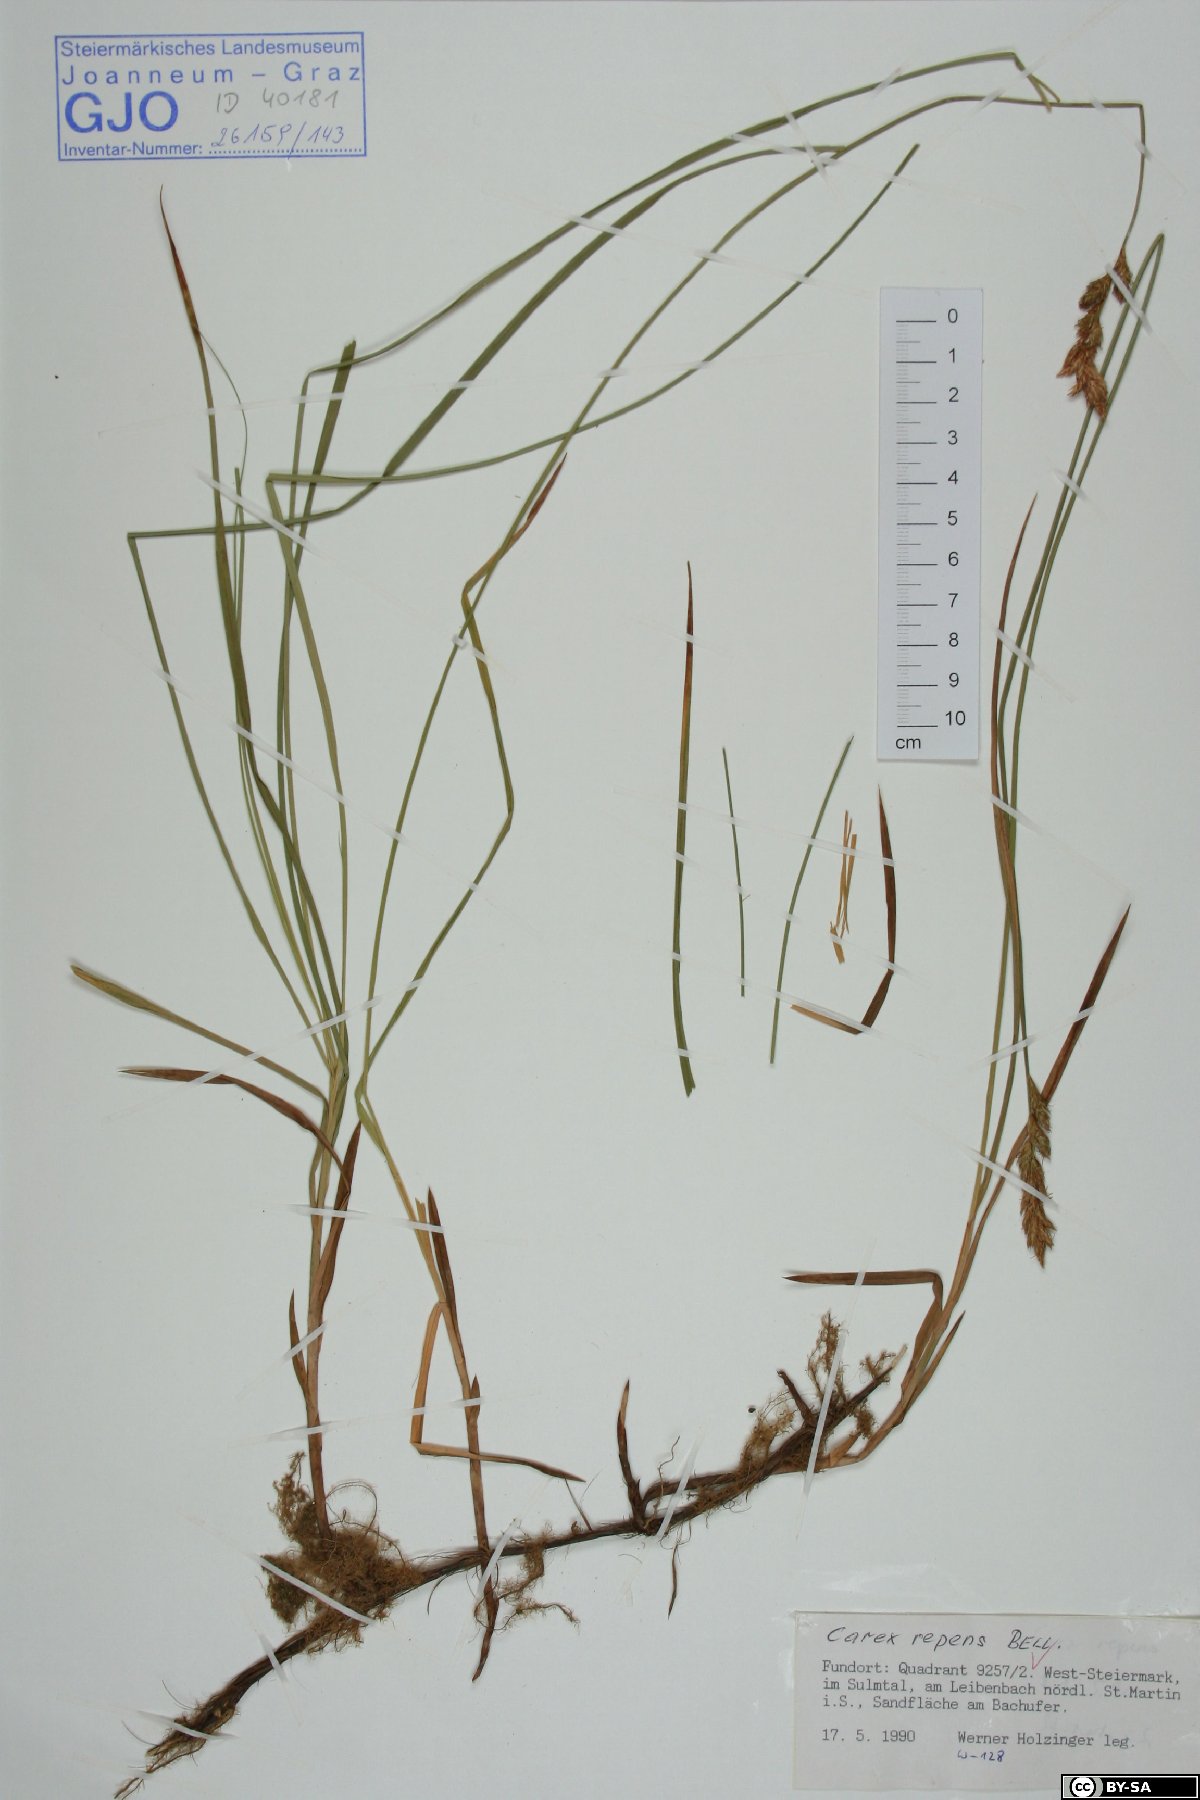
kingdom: Plantae
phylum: Tracheophyta
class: Liliopsida
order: Poales
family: Cyperaceae
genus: Carex
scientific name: Carex repens
